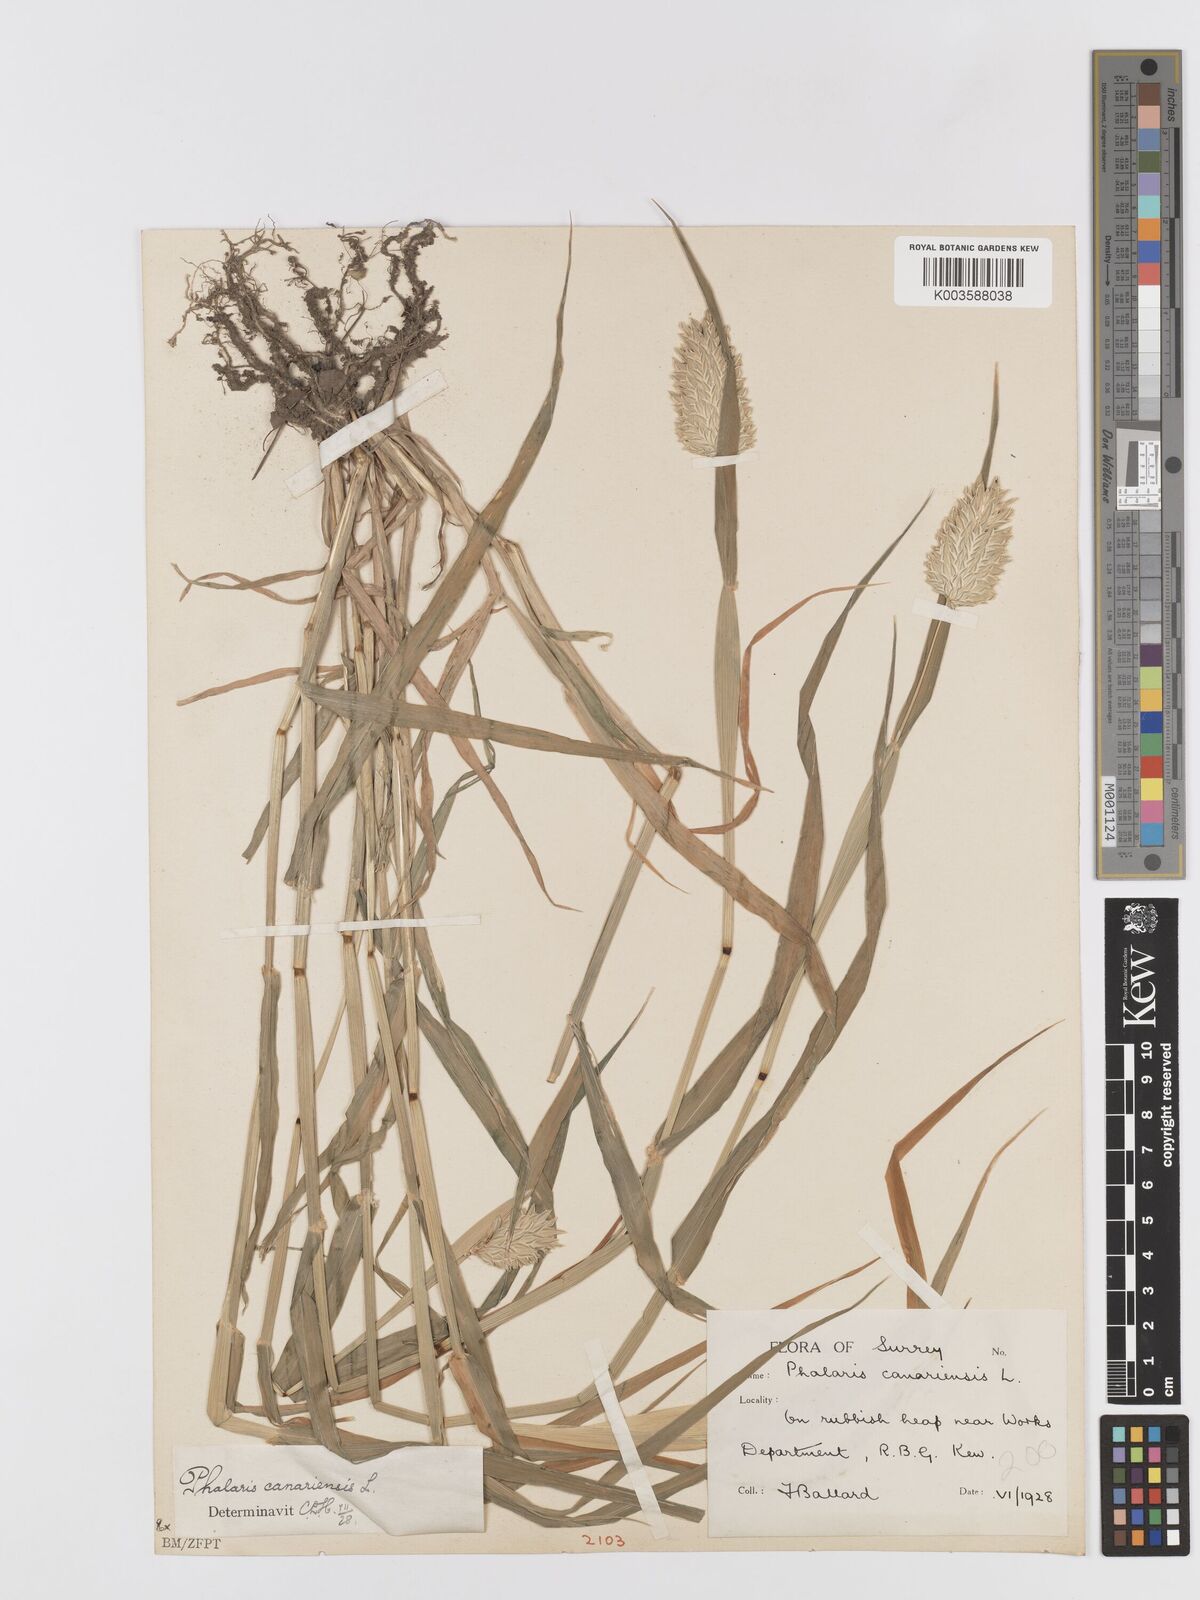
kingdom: Plantae
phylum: Tracheophyta
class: Liliopsida
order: Poales
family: Poaceae
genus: Phalaris
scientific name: Phalaris canariensis
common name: Annual canarygrass
